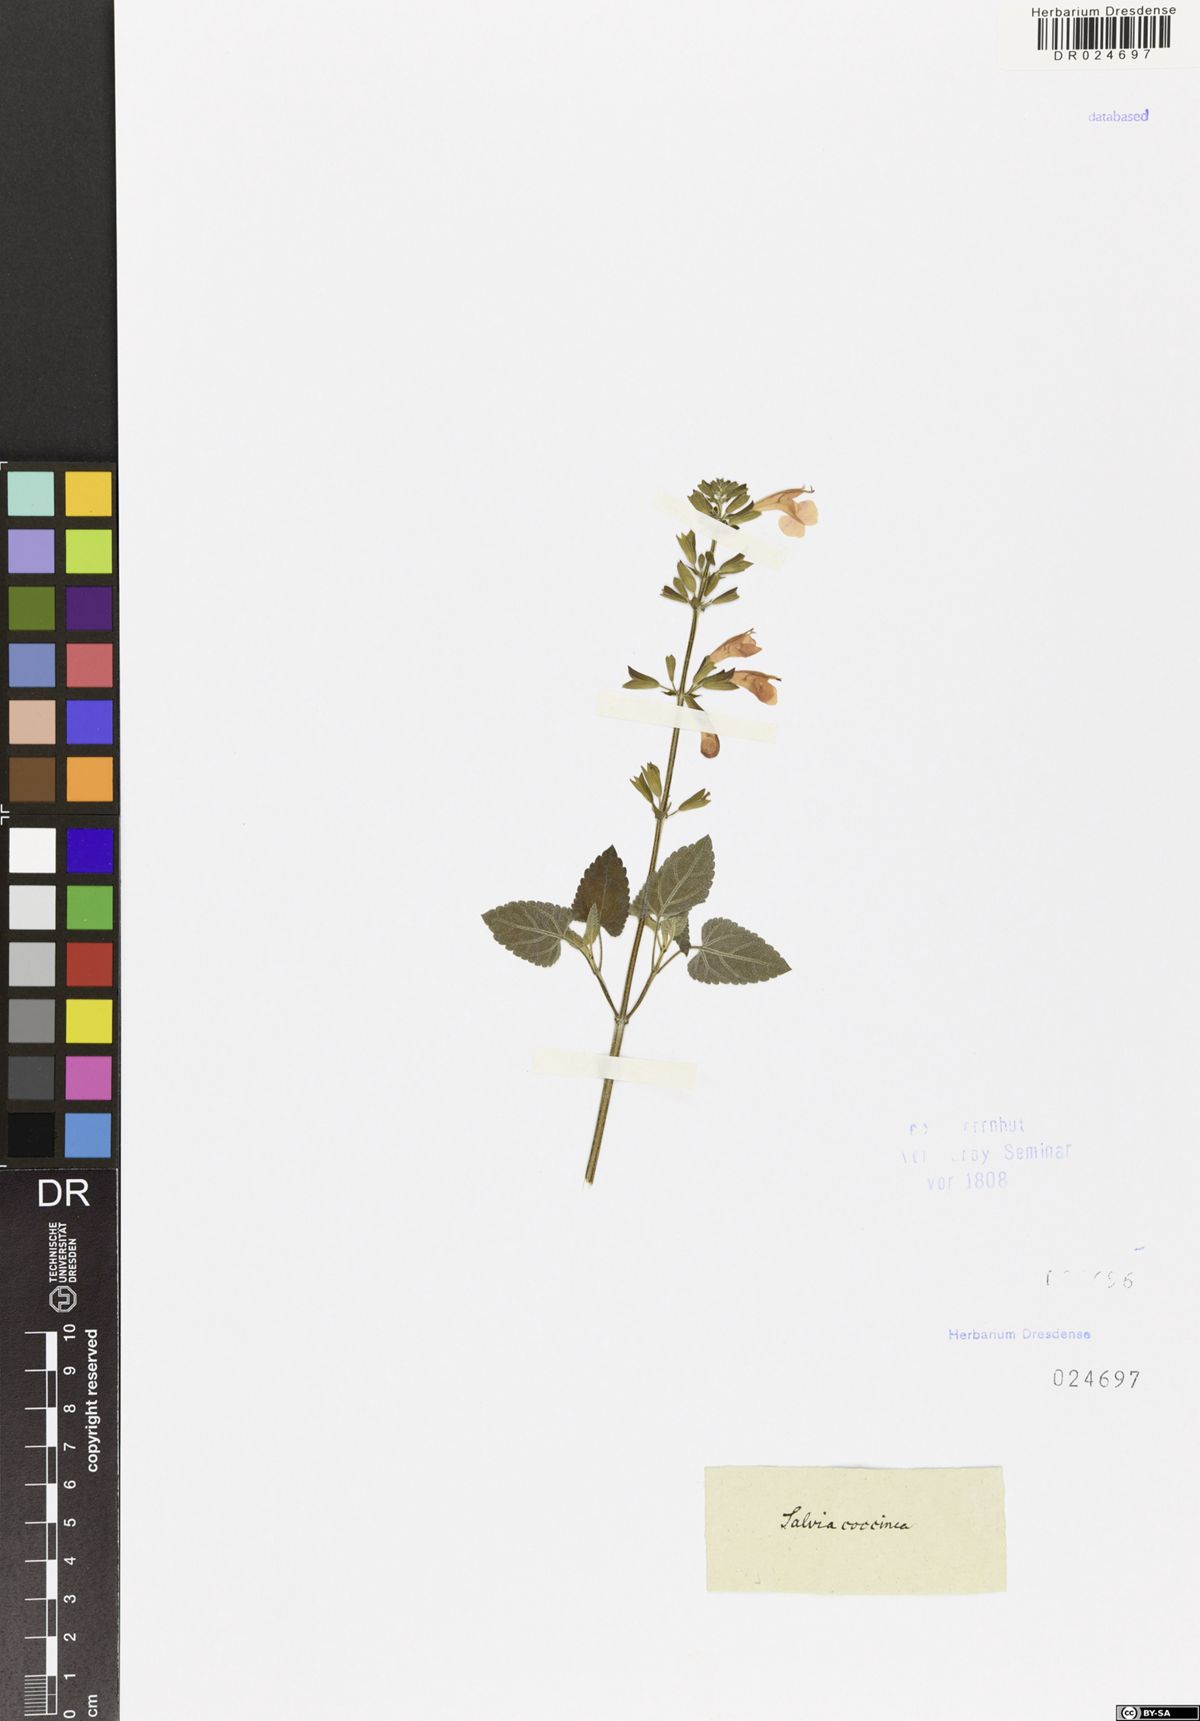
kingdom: Plantae
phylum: Tracheophyta
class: Magnoliopsida
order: Lamiales
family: Lamiaceae
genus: Salvia
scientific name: Salvia coccinea
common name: Blood sage
